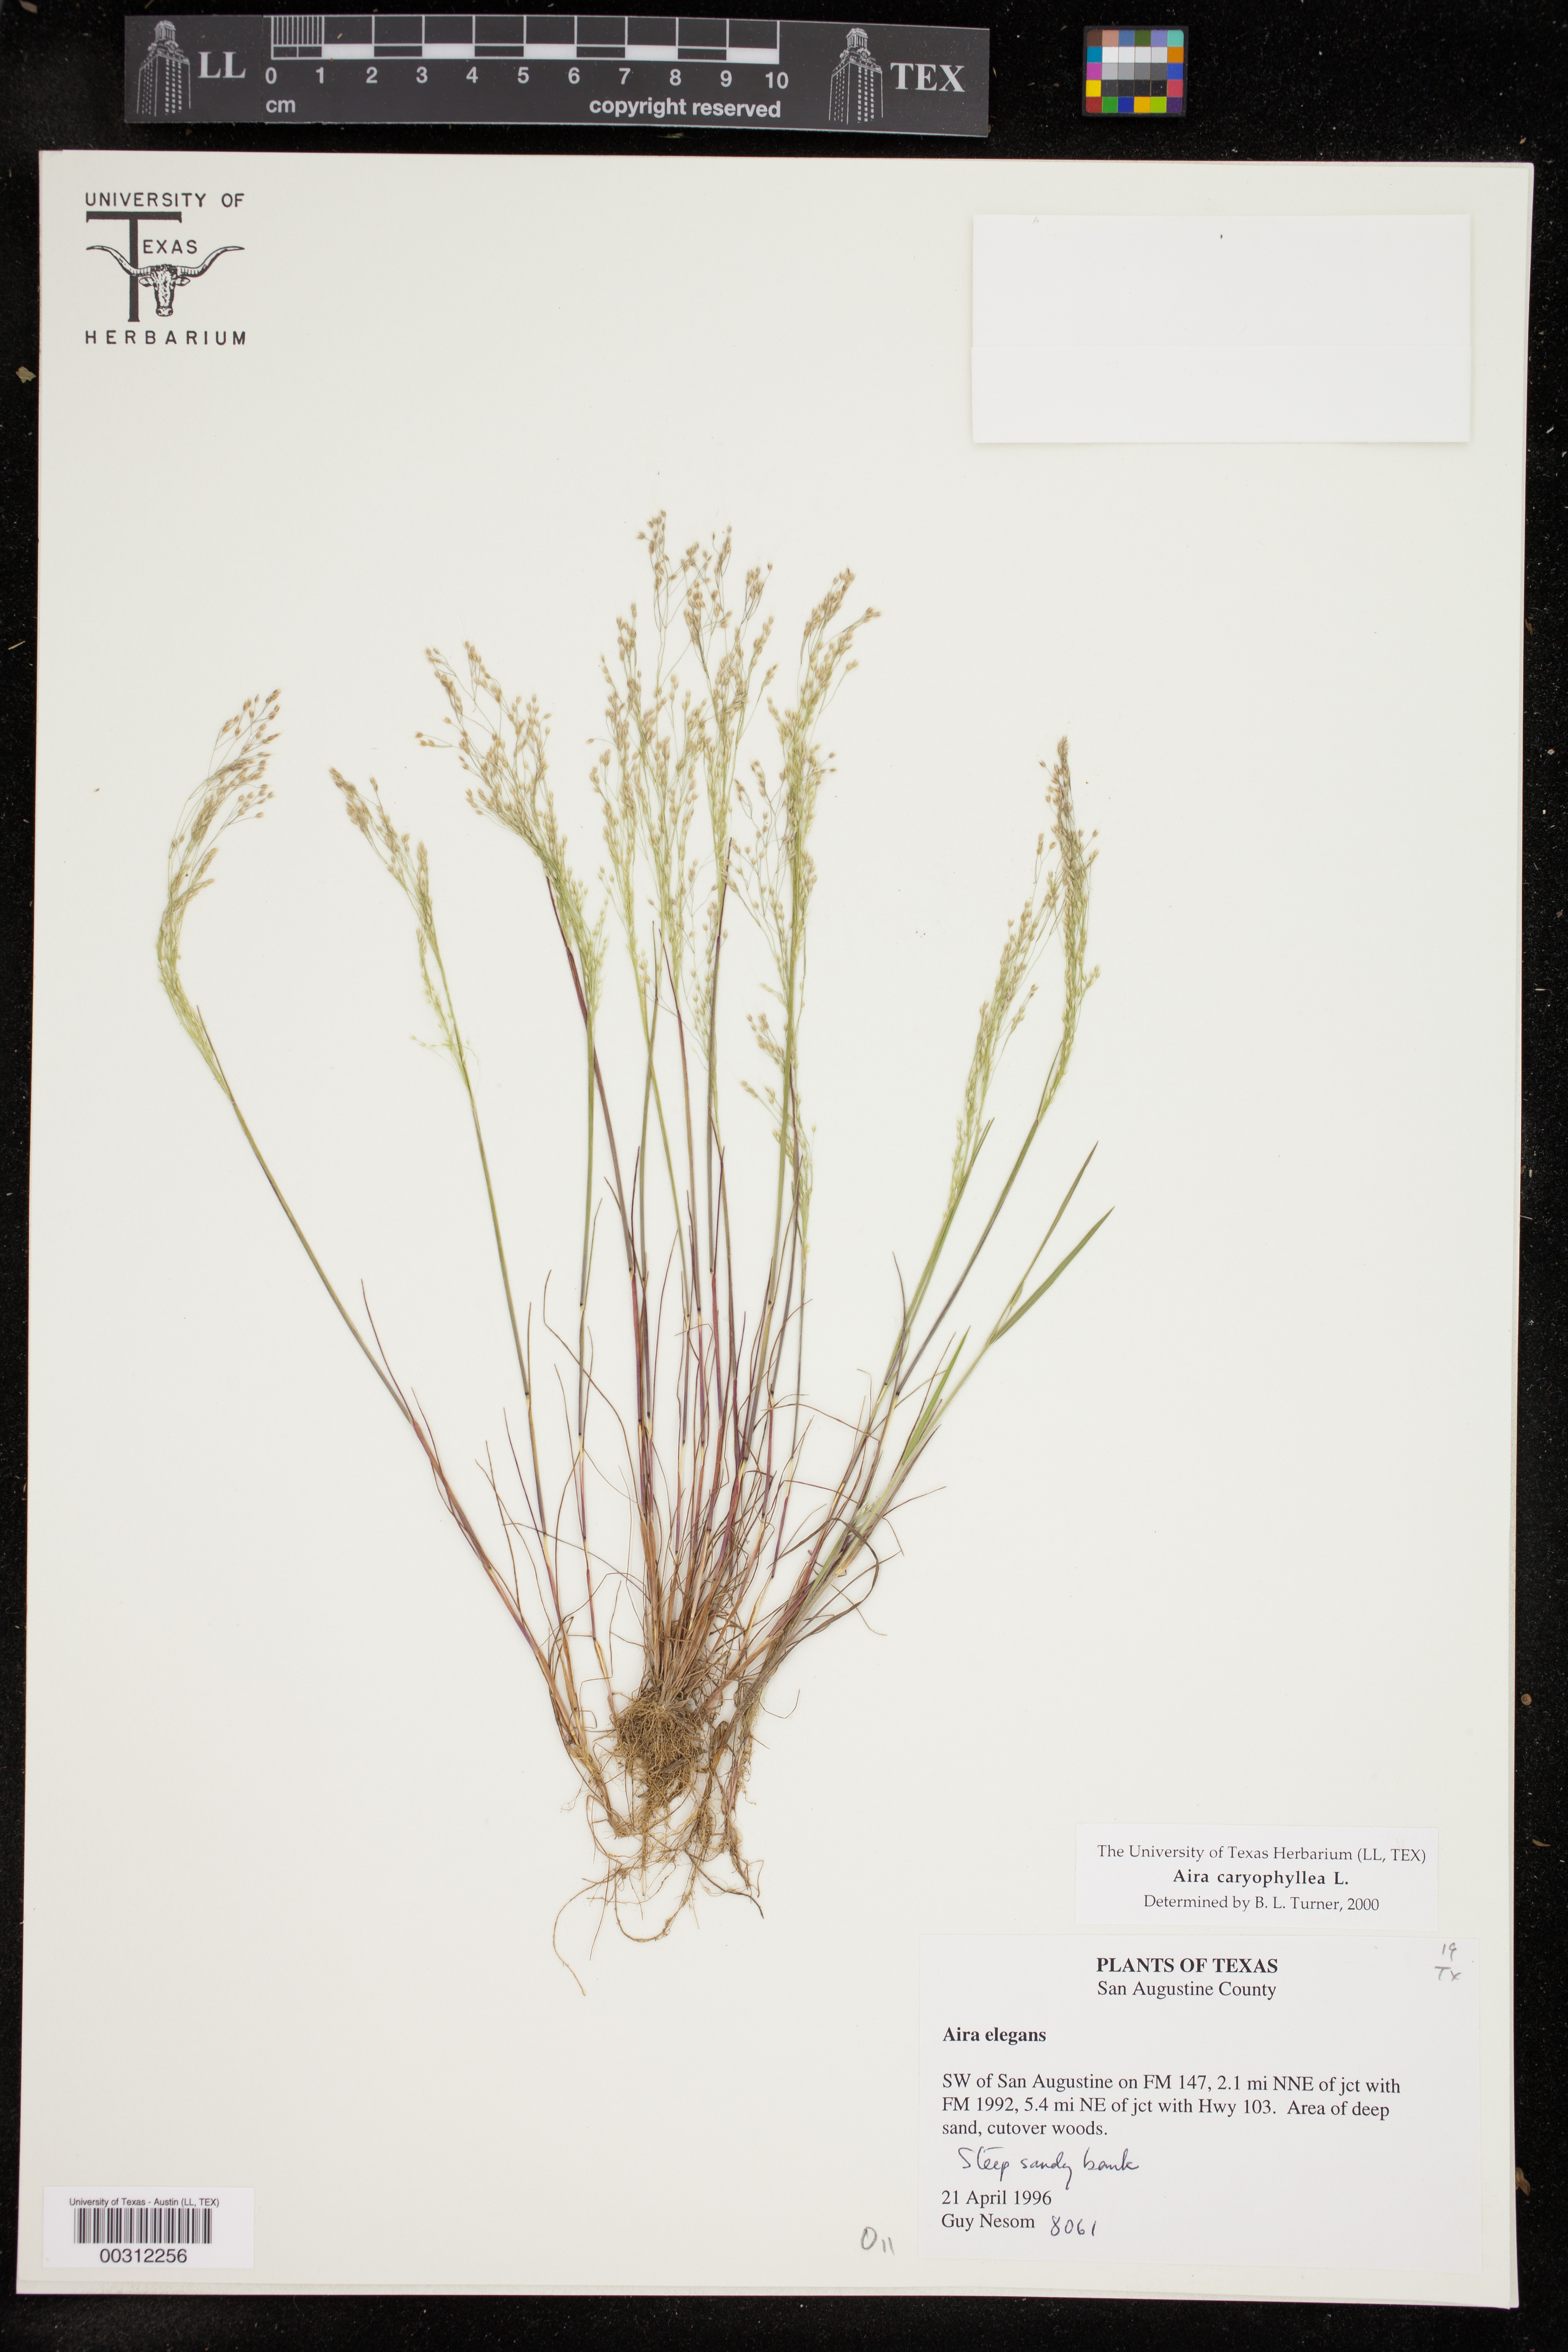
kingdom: Plantae
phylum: Tracheophyta
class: Liliopsida
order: Poales
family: Poaceae
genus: Aira
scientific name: Aira caryophyllea
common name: Silver hairgrass
